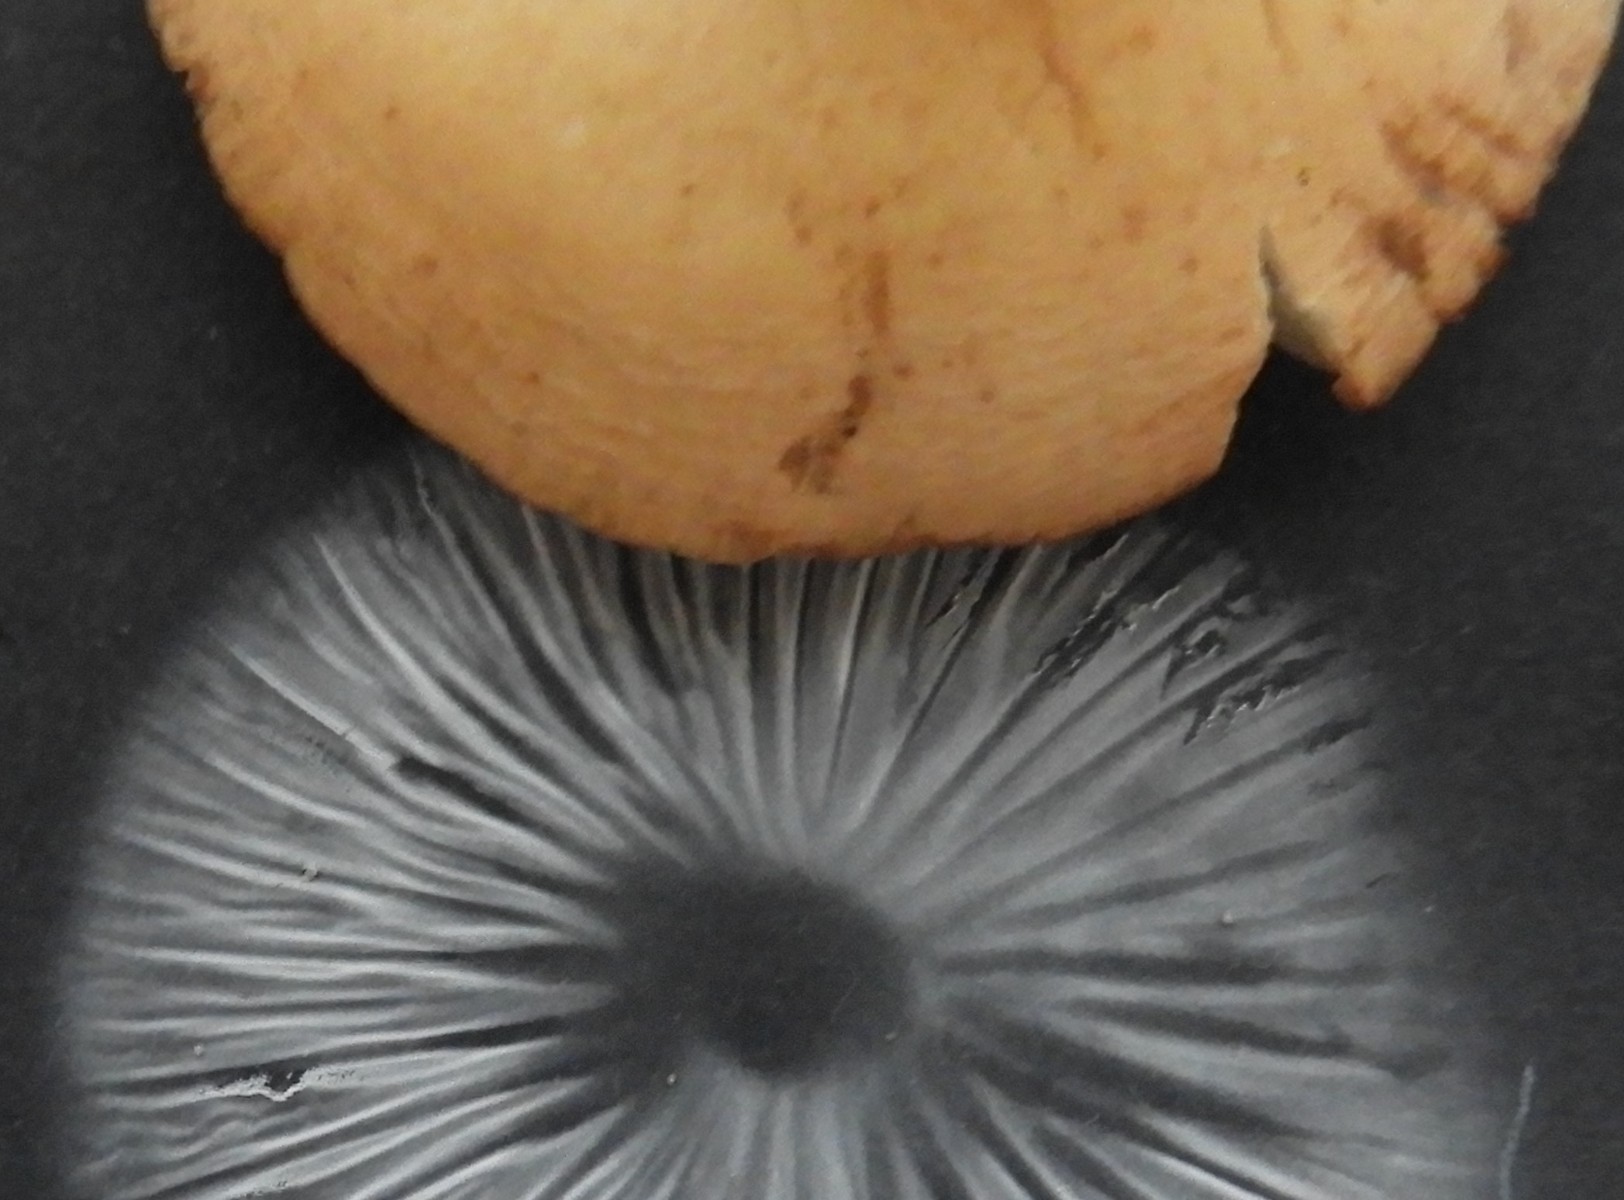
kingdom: Fungi
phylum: Basidiomycota
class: Agaricomycetes
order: Agaricales
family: Marasmiaceae
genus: Marasmius
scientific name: Marasmius oreades
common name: elledans-bruskhat
